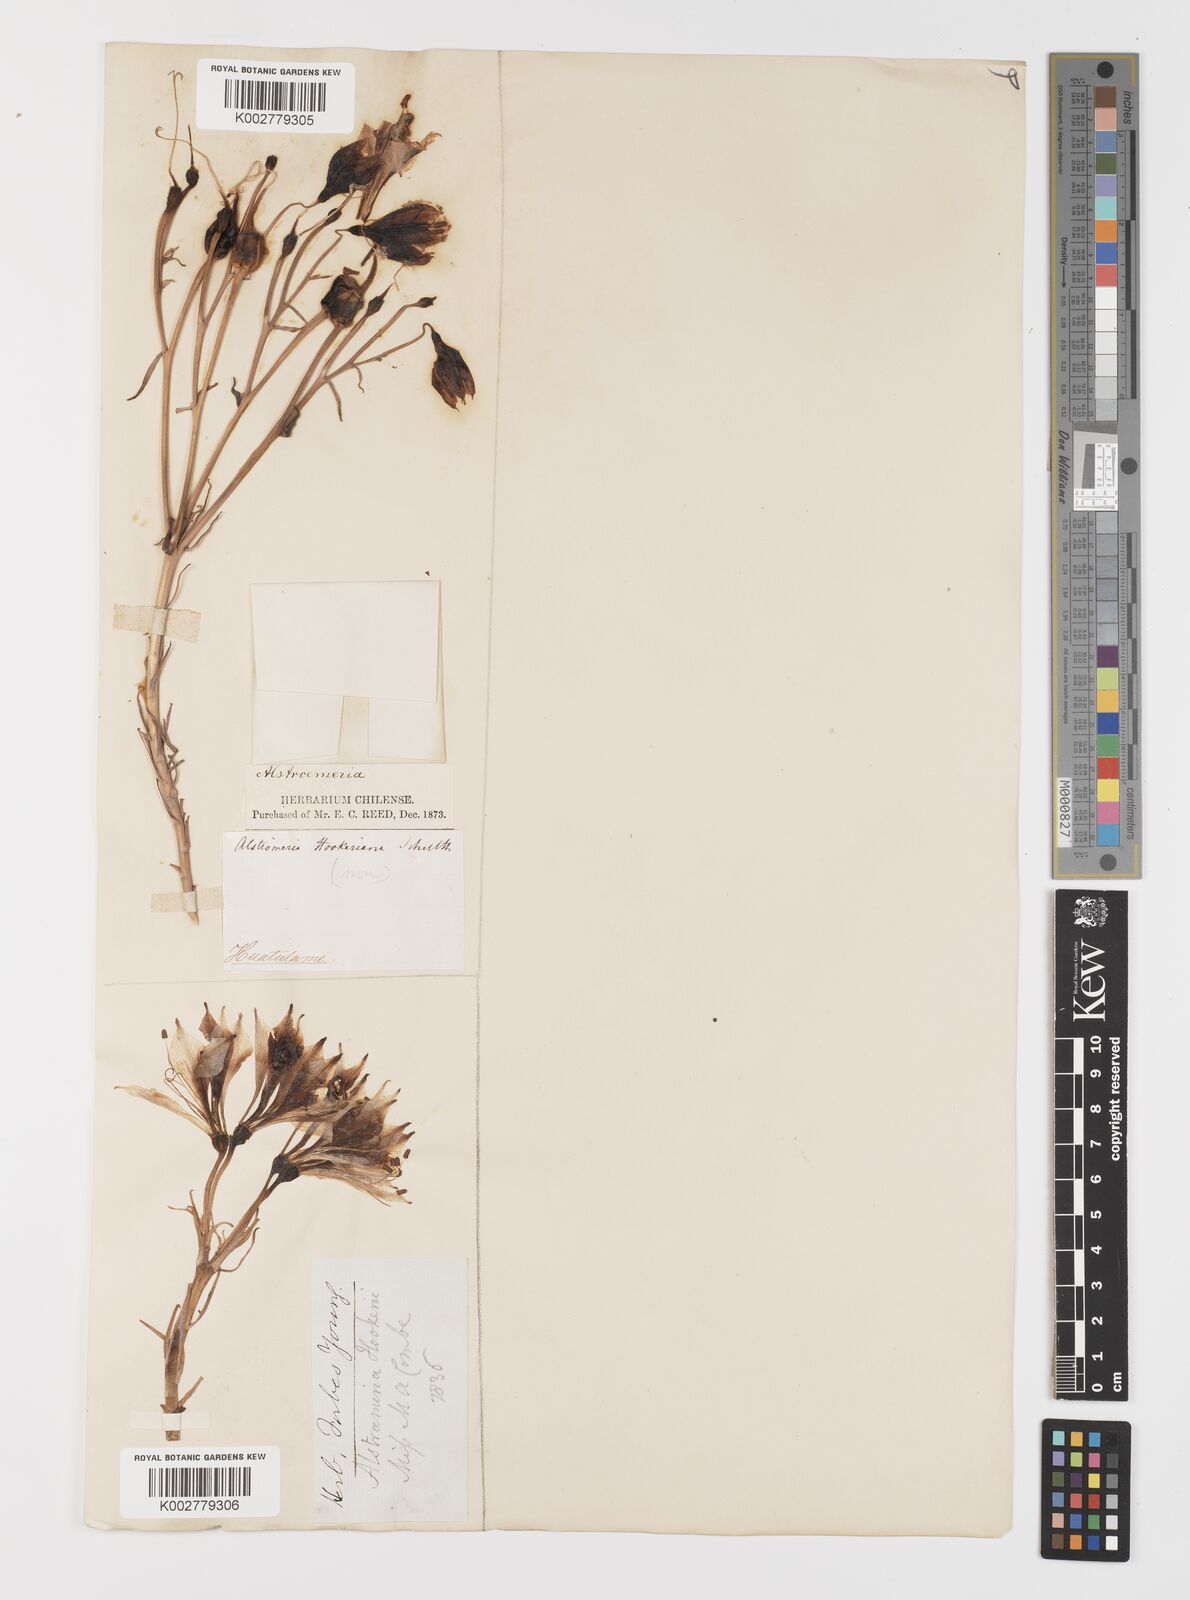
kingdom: Plantae
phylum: Tracheophyta
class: Liliopsida
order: Liliales
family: Alstroemeriaceae
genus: Alstroemeria
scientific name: Alstroemeria ligtu
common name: St. martin's-flower
